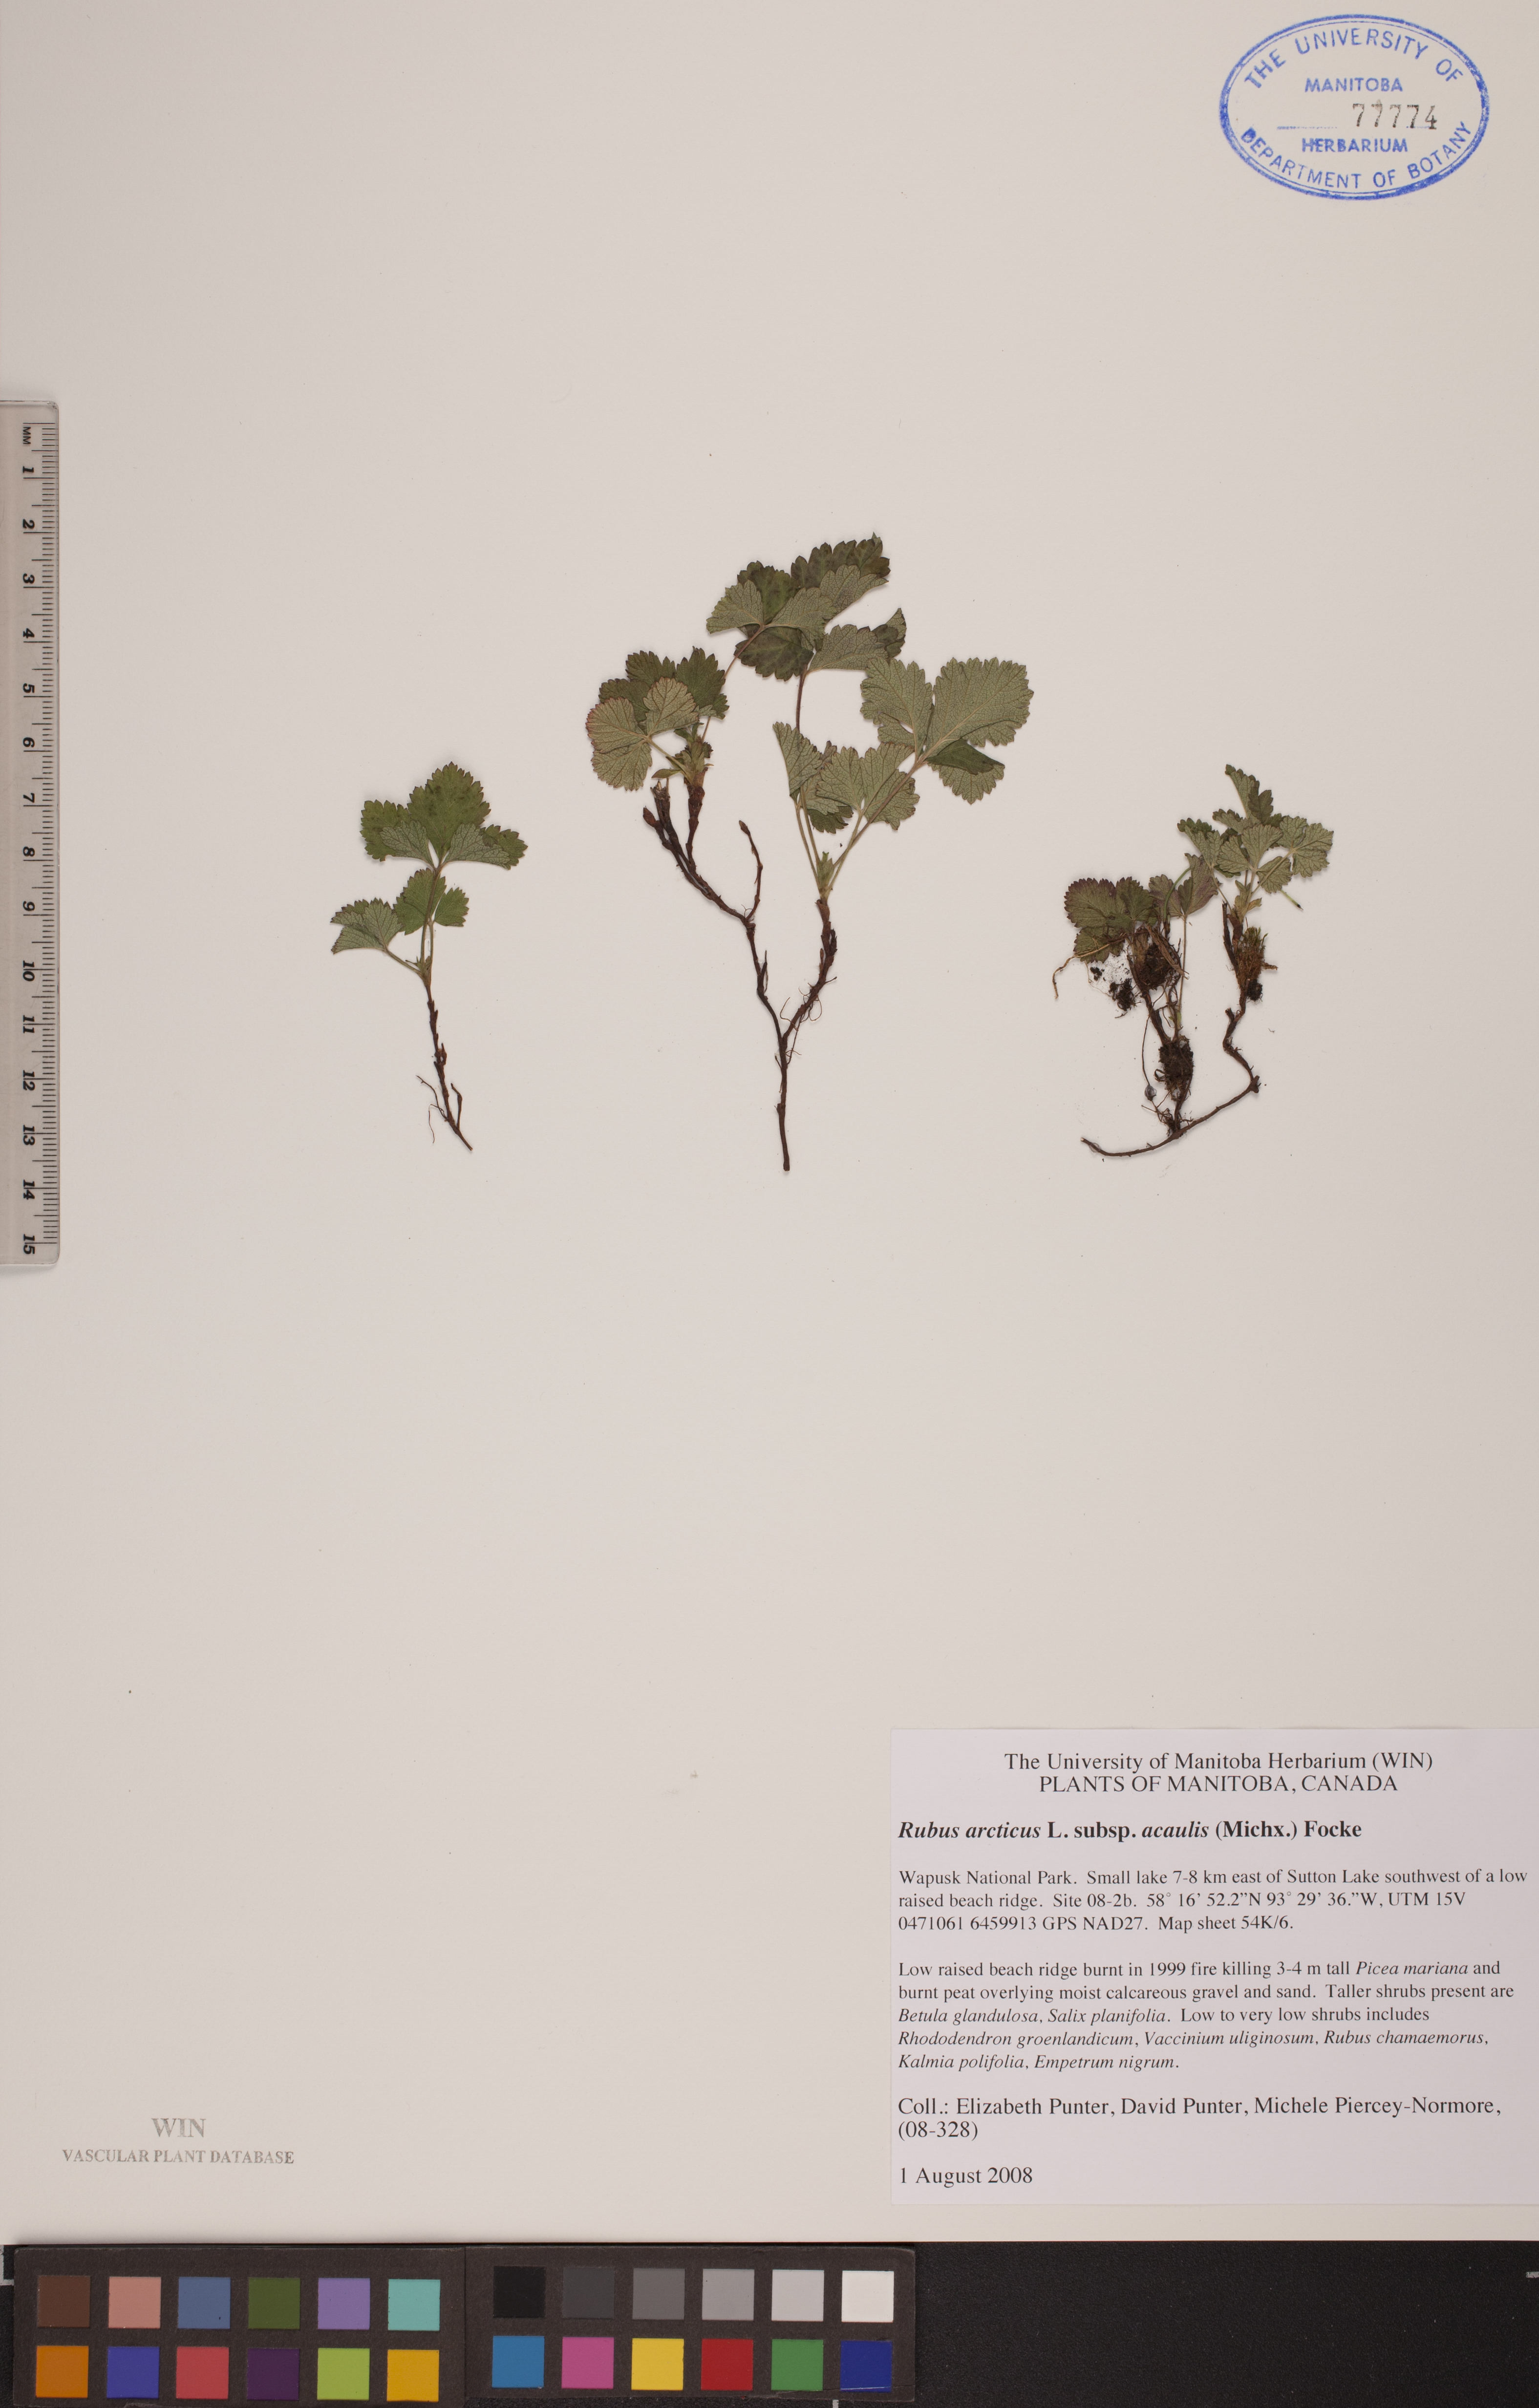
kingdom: Plantae
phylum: Tracheophyta
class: Magnoliopsida
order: Rosales
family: Rosaceae
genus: Rubus
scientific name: Rubus arcticus
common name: Arctic bramble
